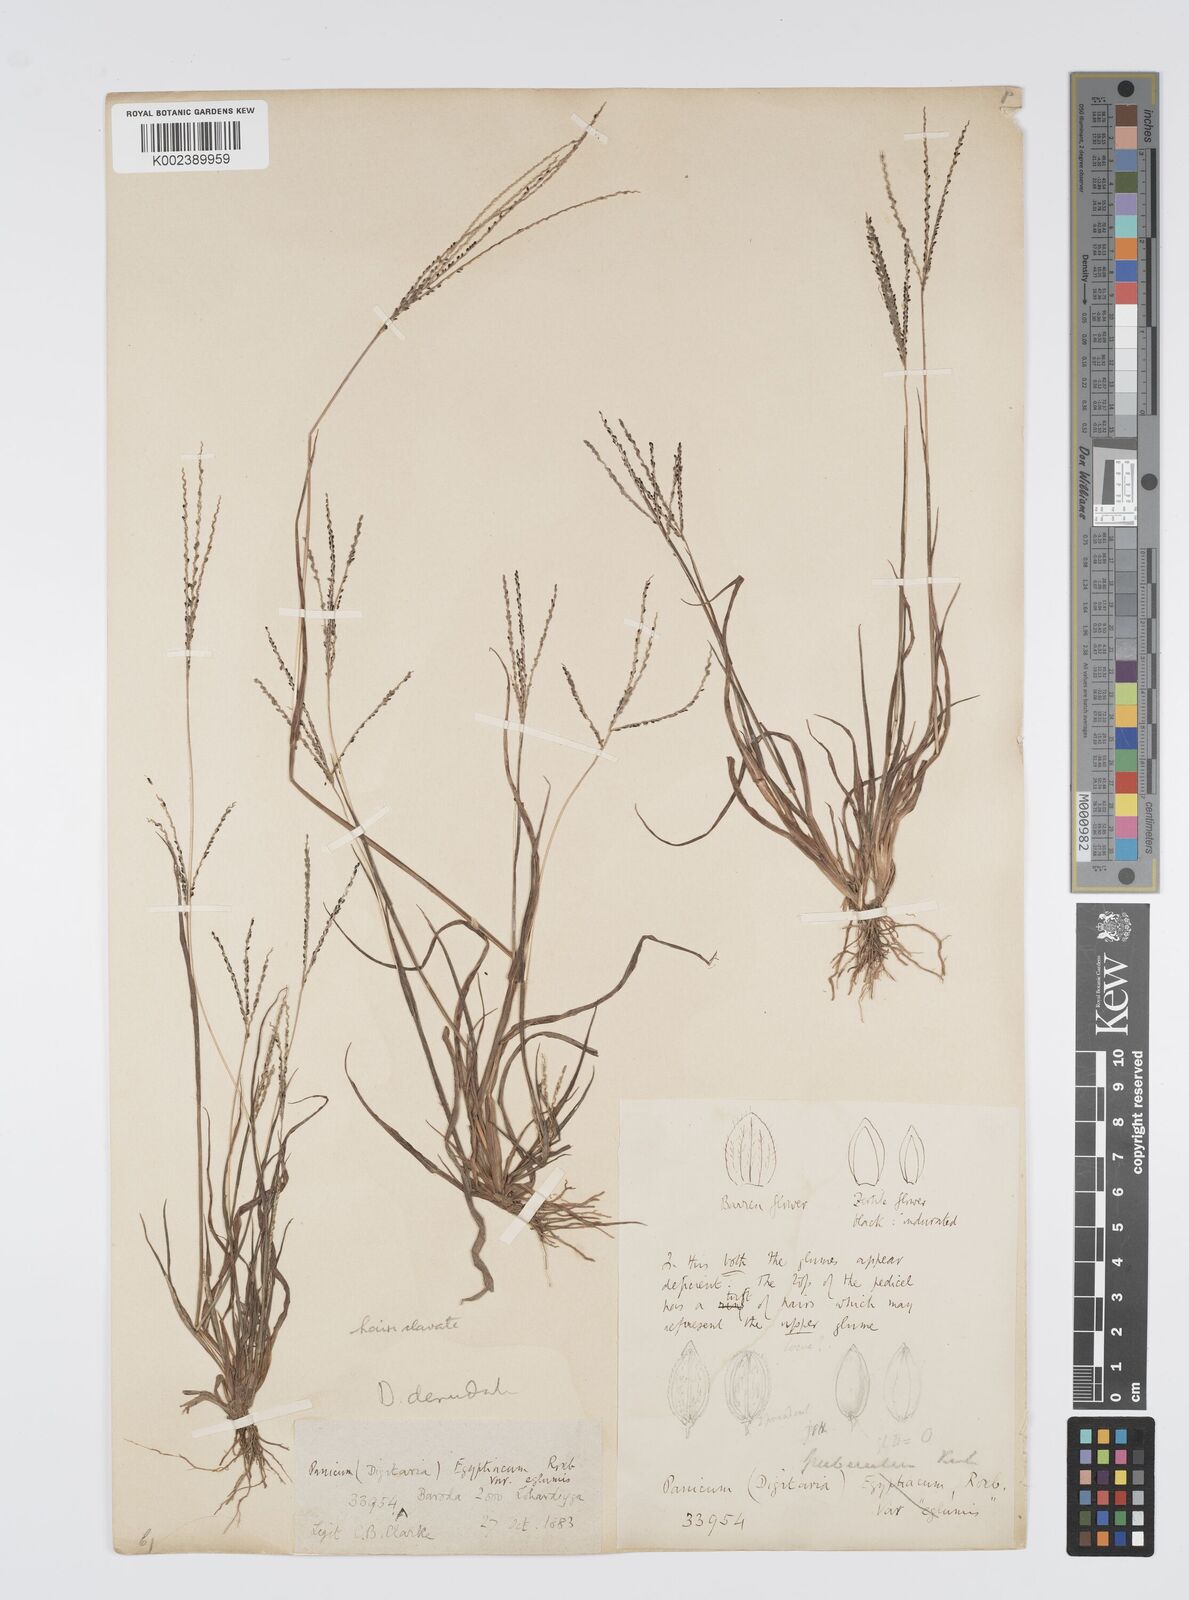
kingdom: Plantae
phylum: Tracheophyta
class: Liliopsida
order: Poales
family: Poaceae
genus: Digitaria
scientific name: Digitaria stricta
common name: Crabgrass
